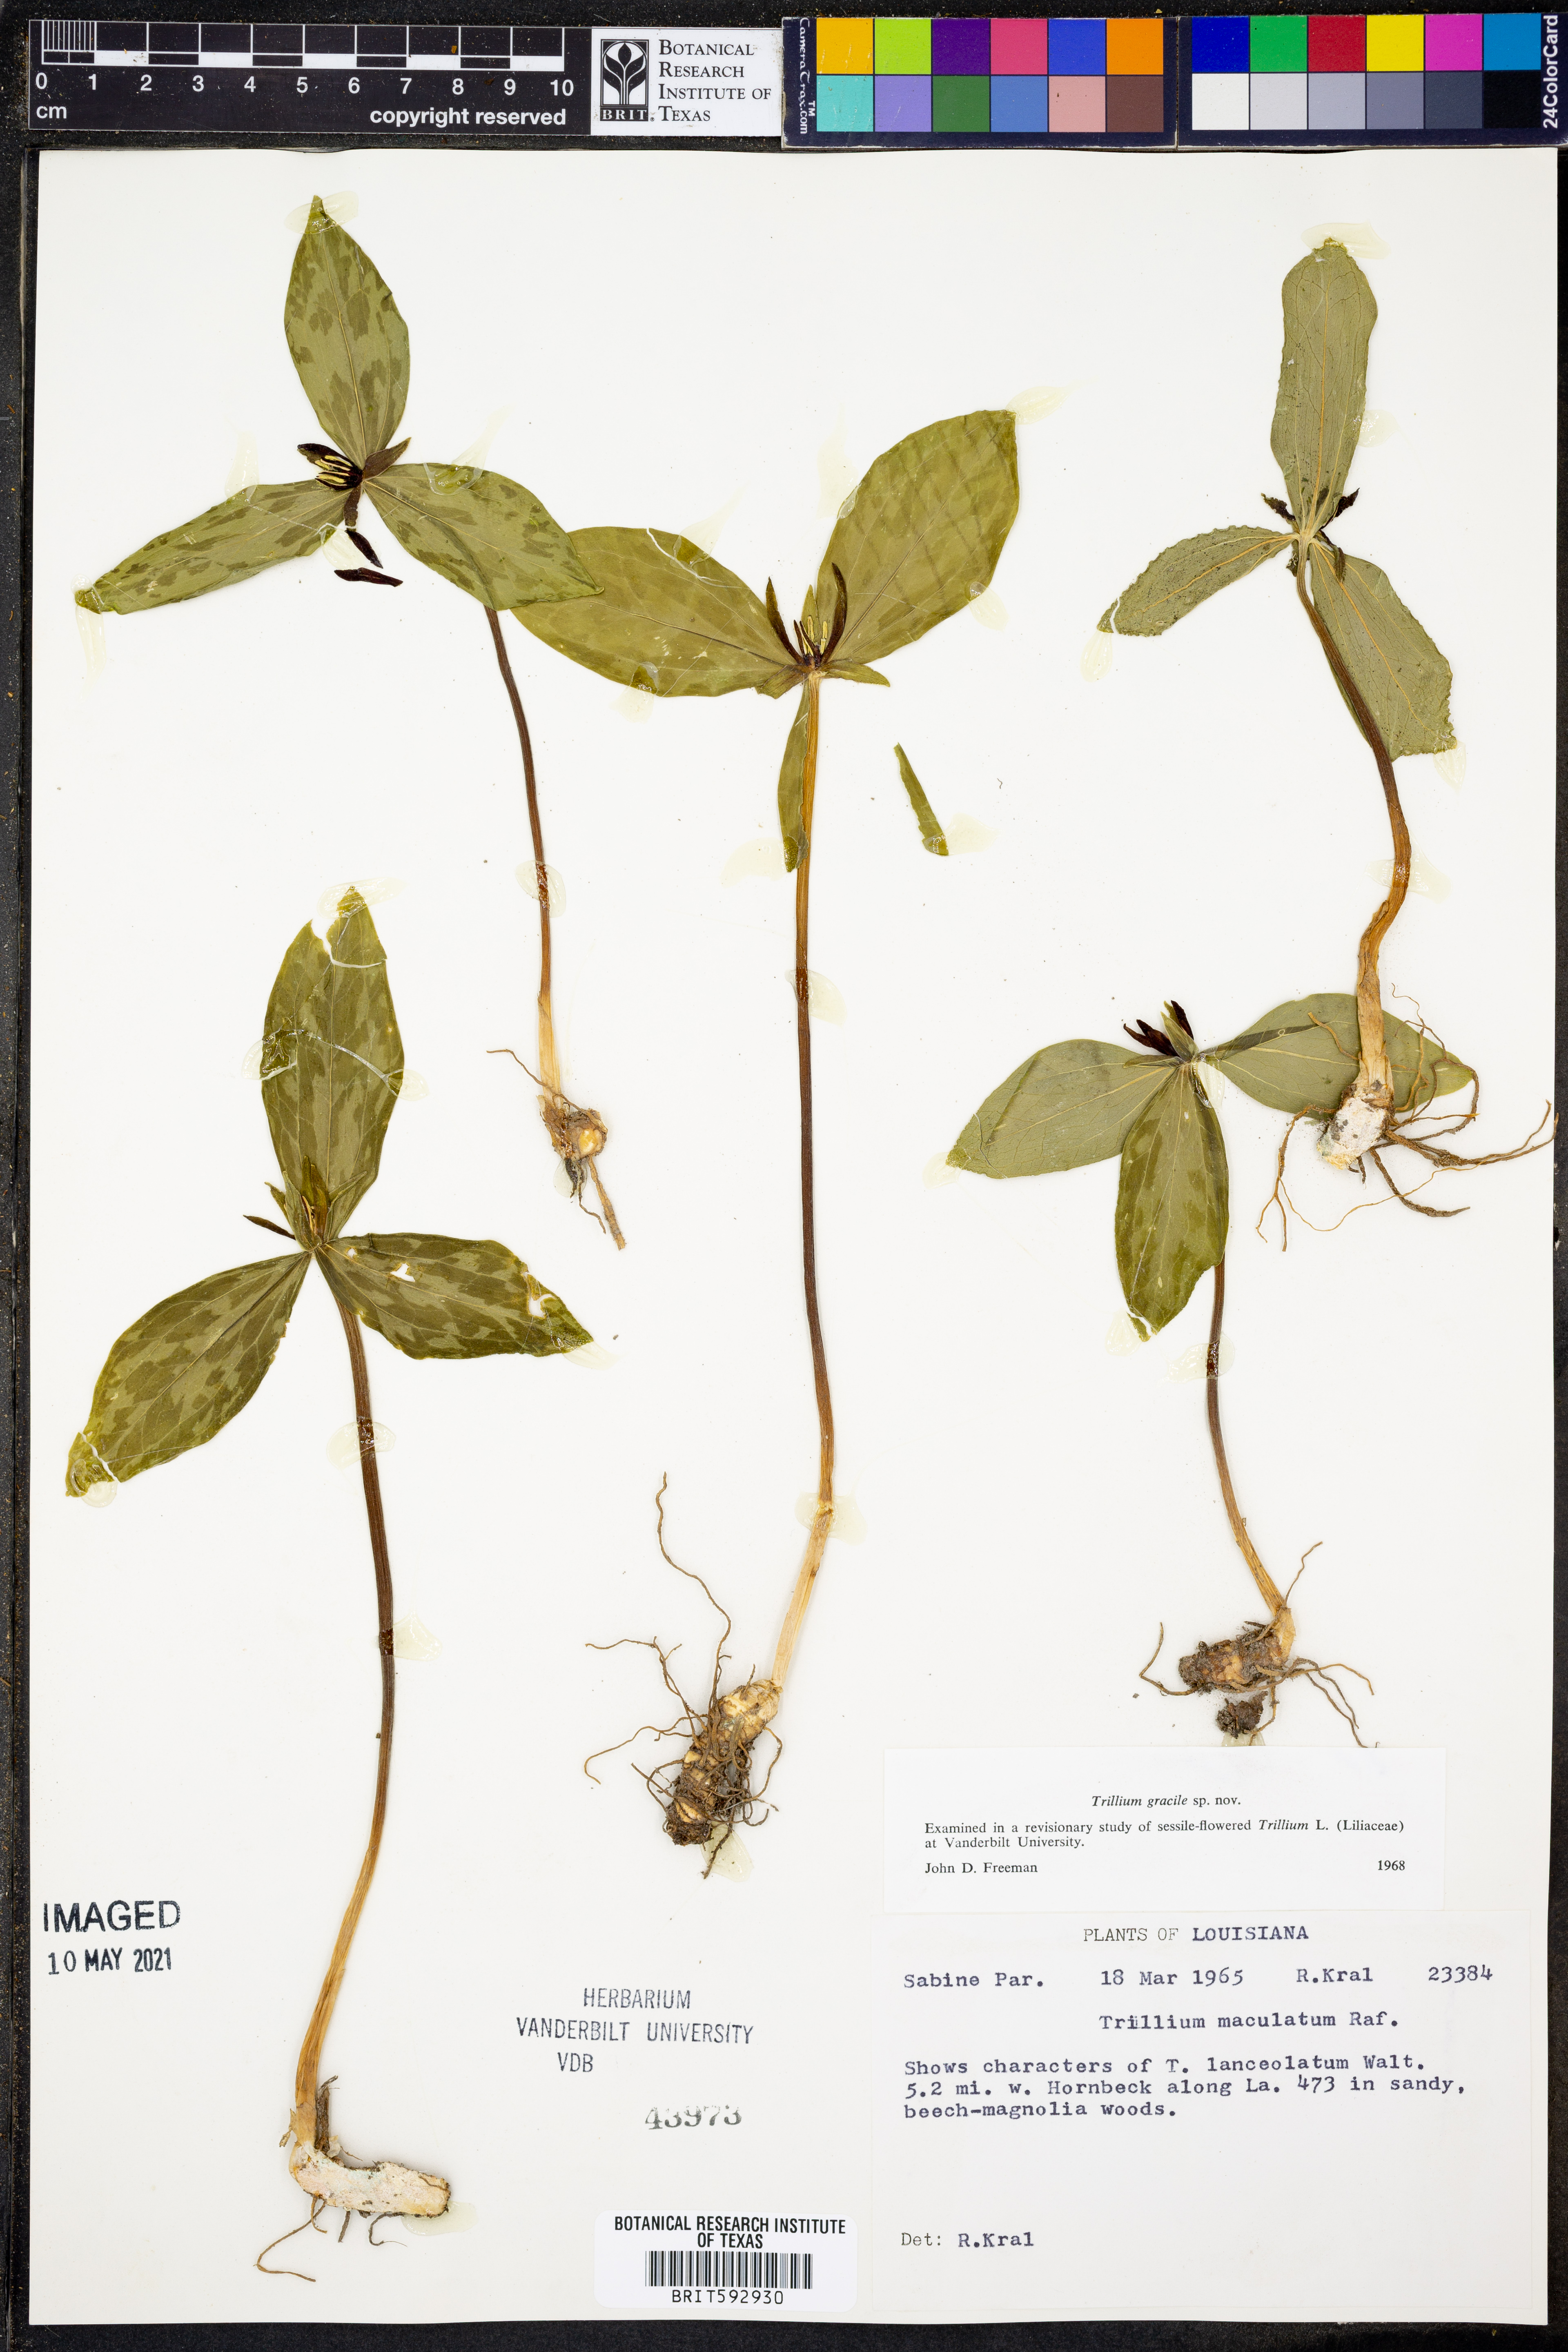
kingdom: Plantae
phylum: Tracheophyta
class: Liliopsida
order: Liliales
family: Melanthiaceae
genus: Trillium
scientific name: Trillium maculatum
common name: Mottled trillium
